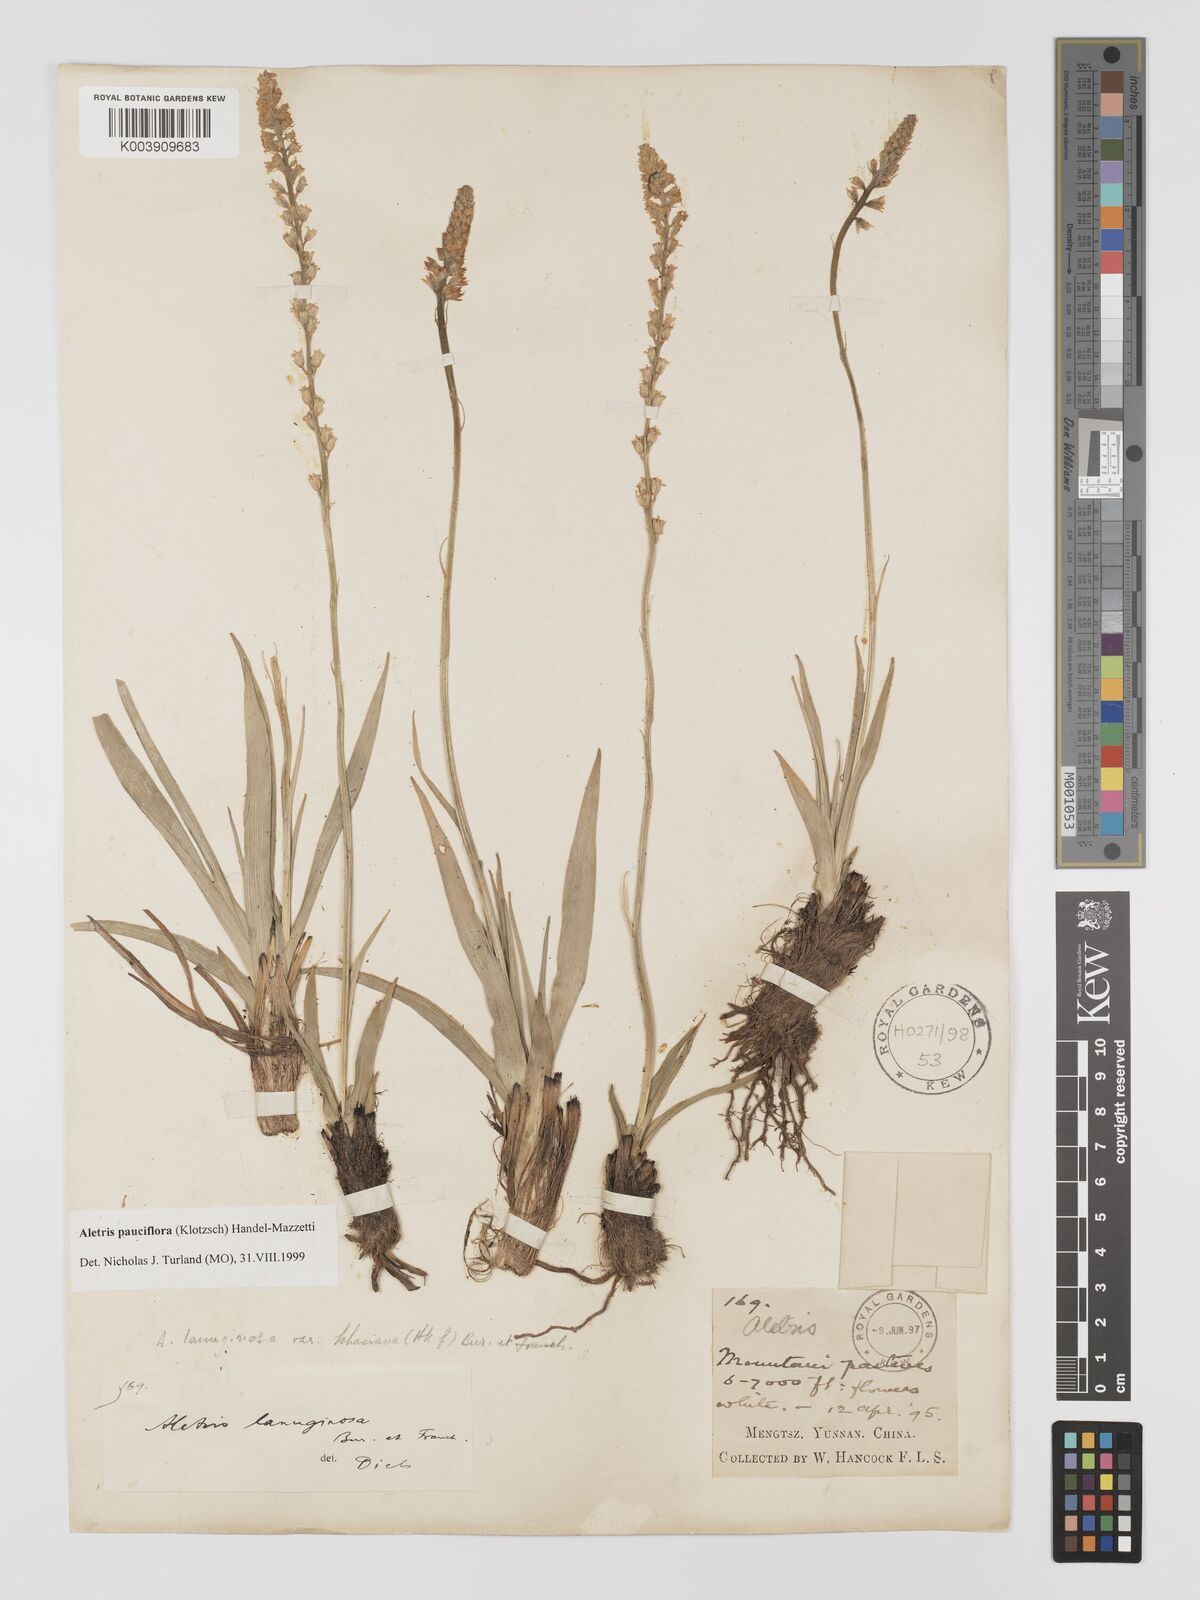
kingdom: Plantae
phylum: Tracheophyta
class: Liliopsida
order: Dioscoreales
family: Nartheciaceae
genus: Aletris
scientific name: Aletris pauciflora
